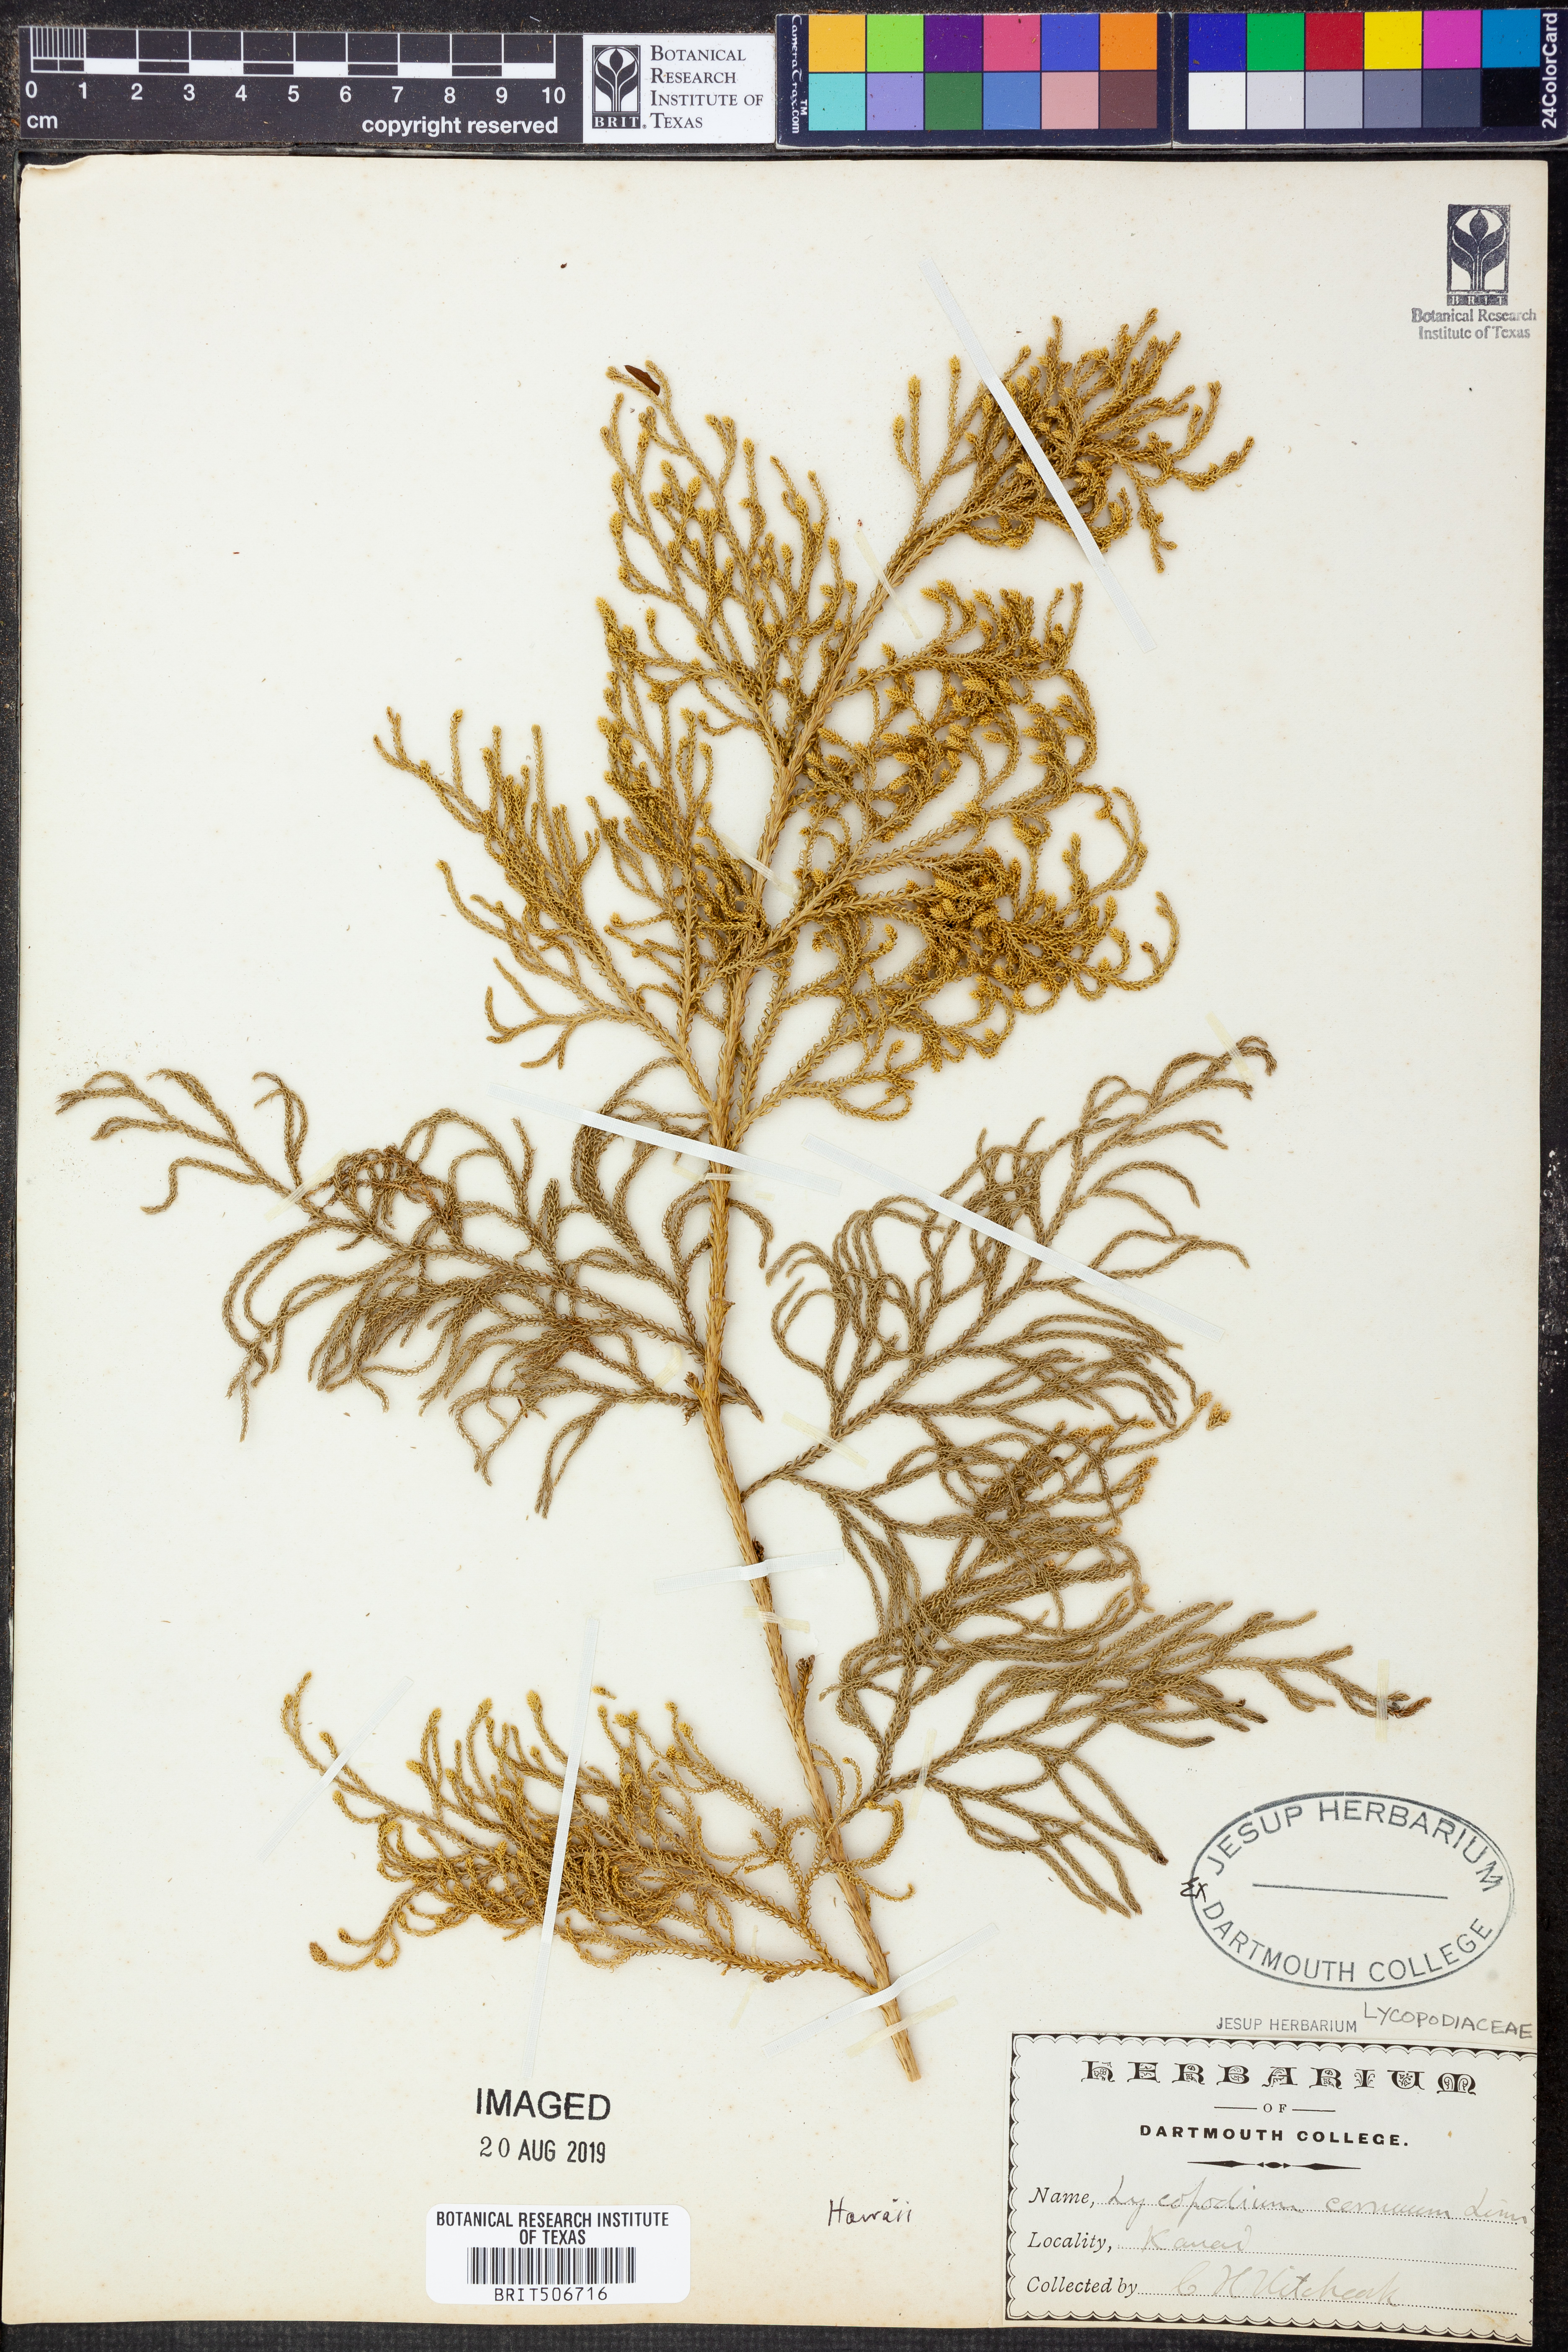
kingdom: Plantae
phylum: Tracheophyta
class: Lycopodiopsida
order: Lycopodiales
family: Lycopodiaceae
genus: Palhinhaea
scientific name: Palhinhaea cernua
